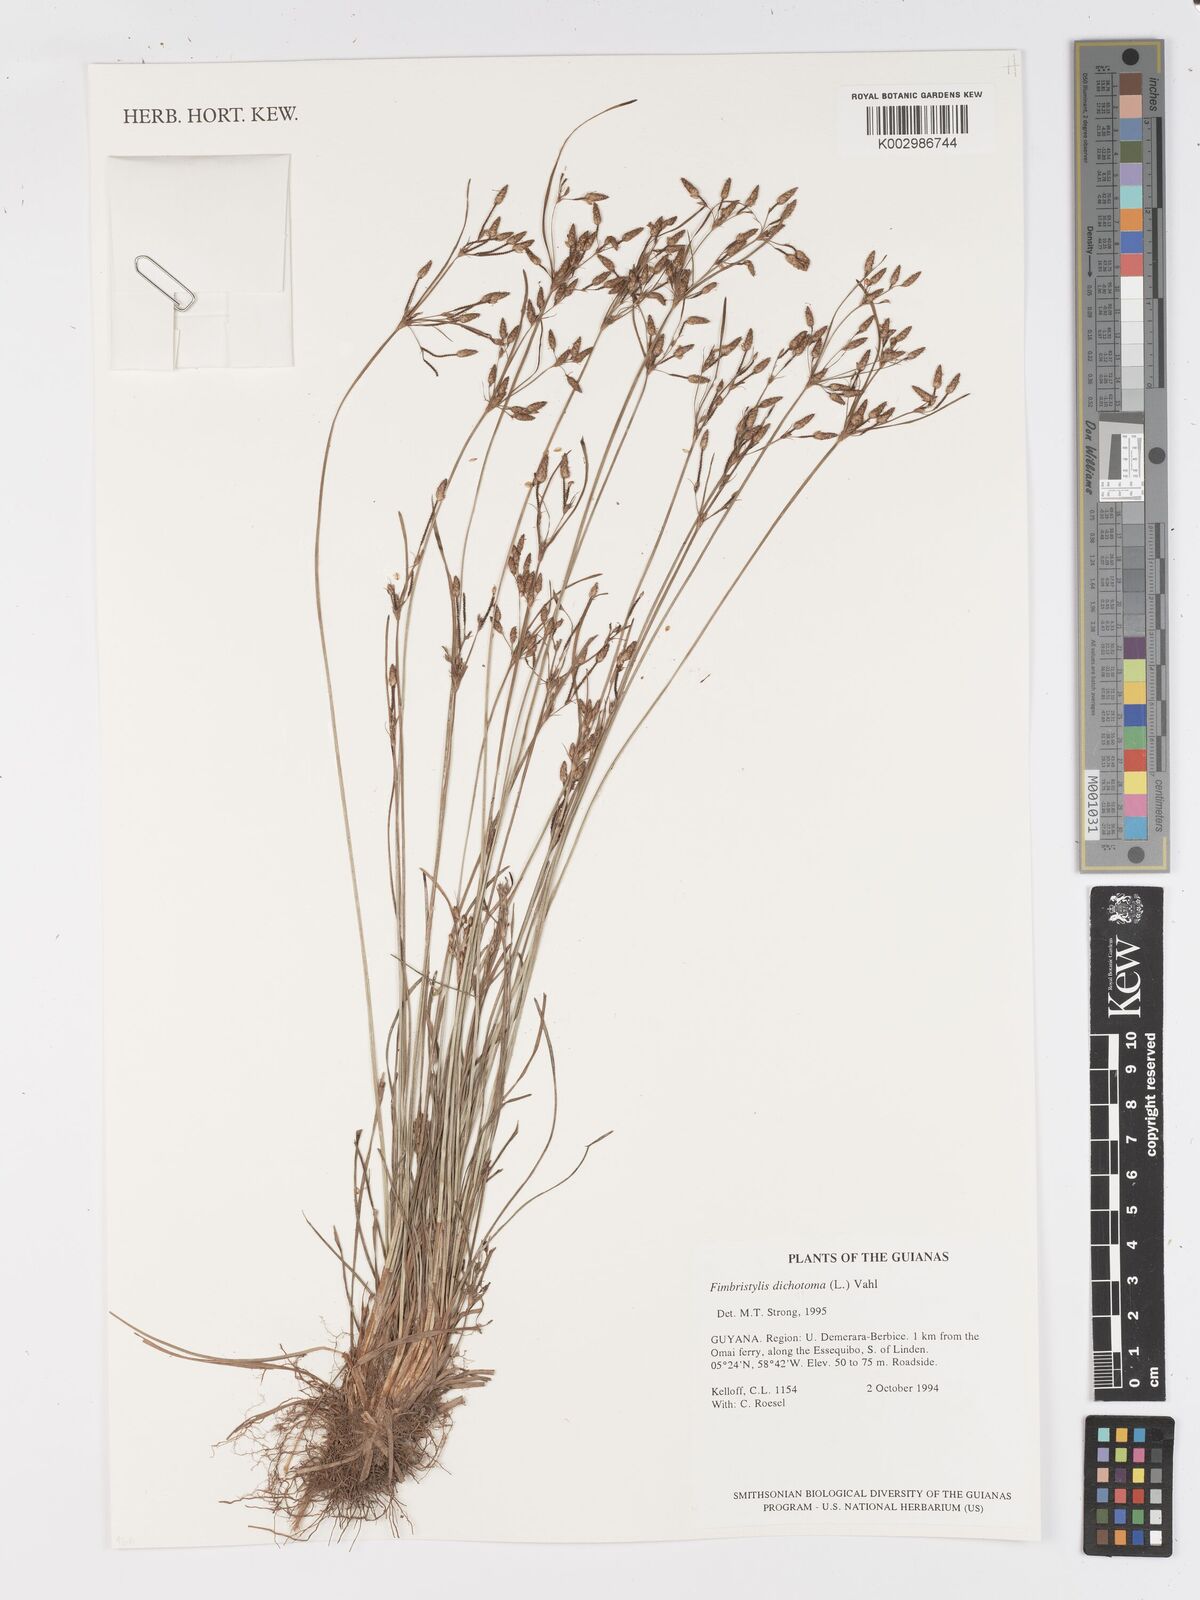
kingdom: Plantae
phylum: Tracheophyta
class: Liliopsida
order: Poales
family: Cyperaceae
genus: Fimbristylis
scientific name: Fimbristylis dichotoma
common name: Forked fimbry
